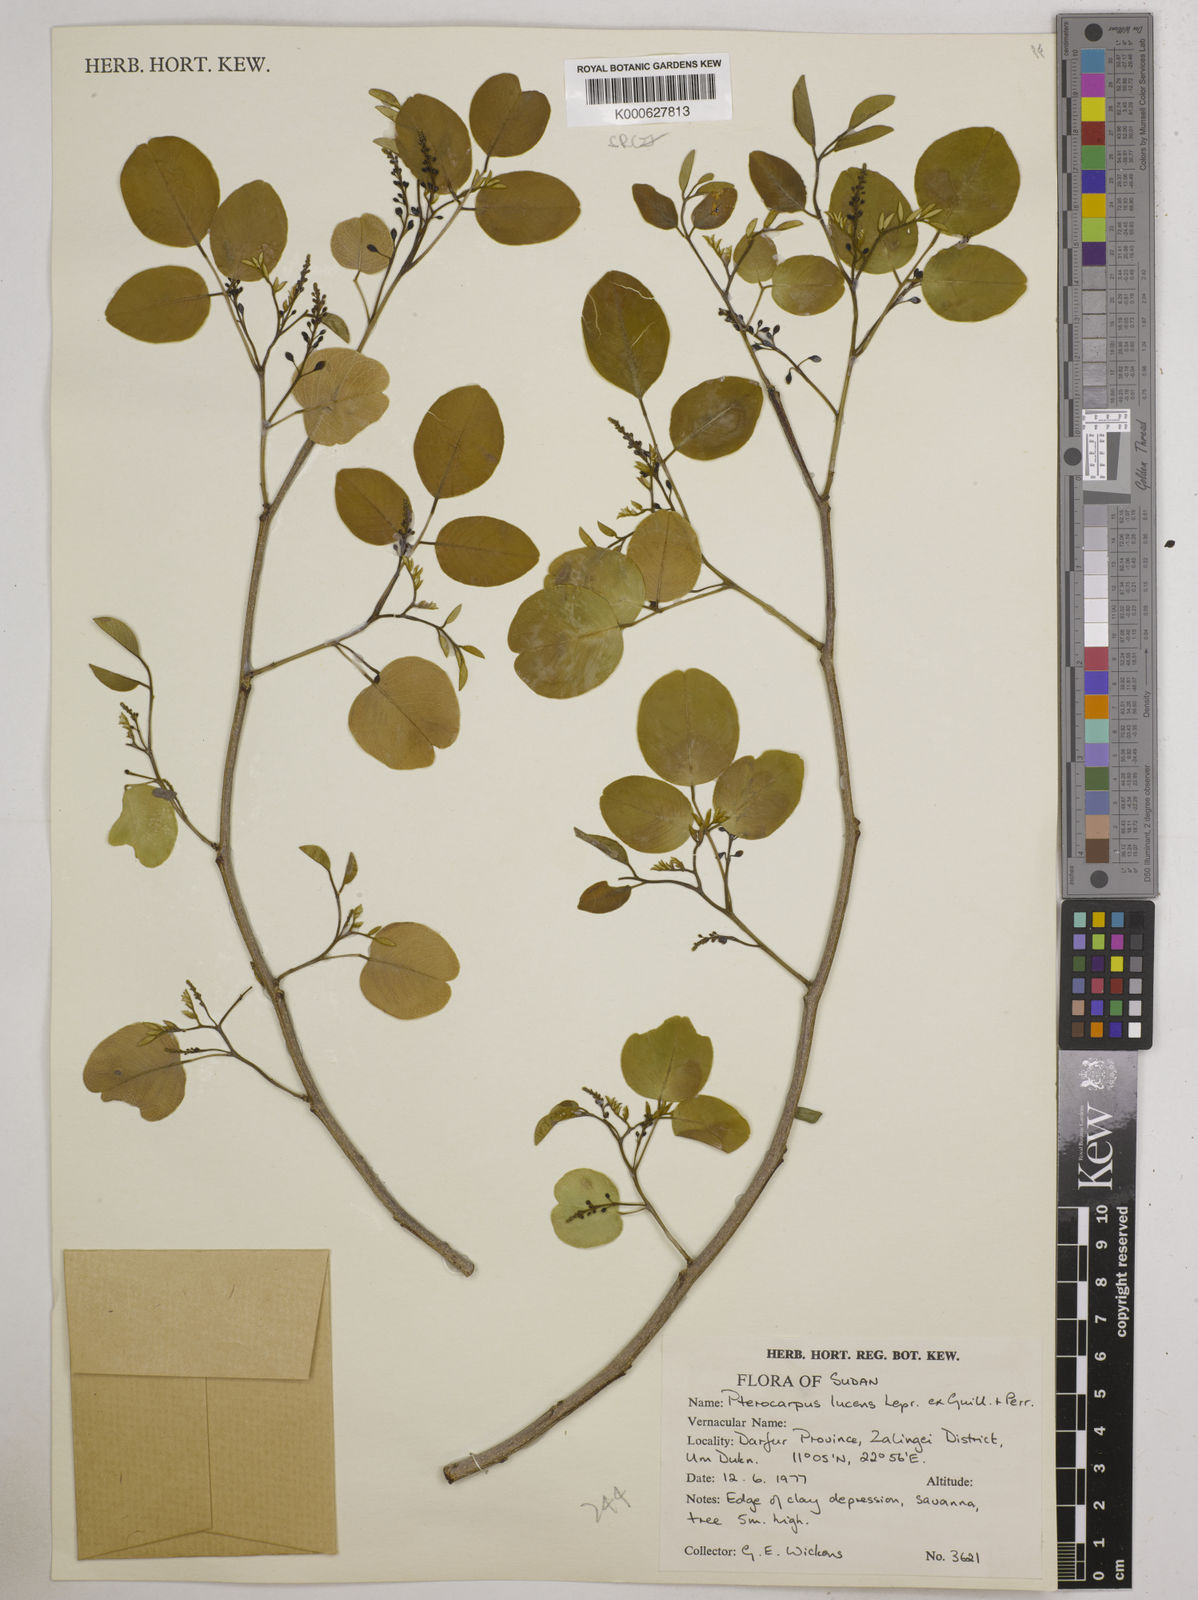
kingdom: Plantae
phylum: Tracheophyta
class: Magnoliopsida
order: Fabales
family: Fabaceae
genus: Pterocarpus
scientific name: Pterocarpus lucens
